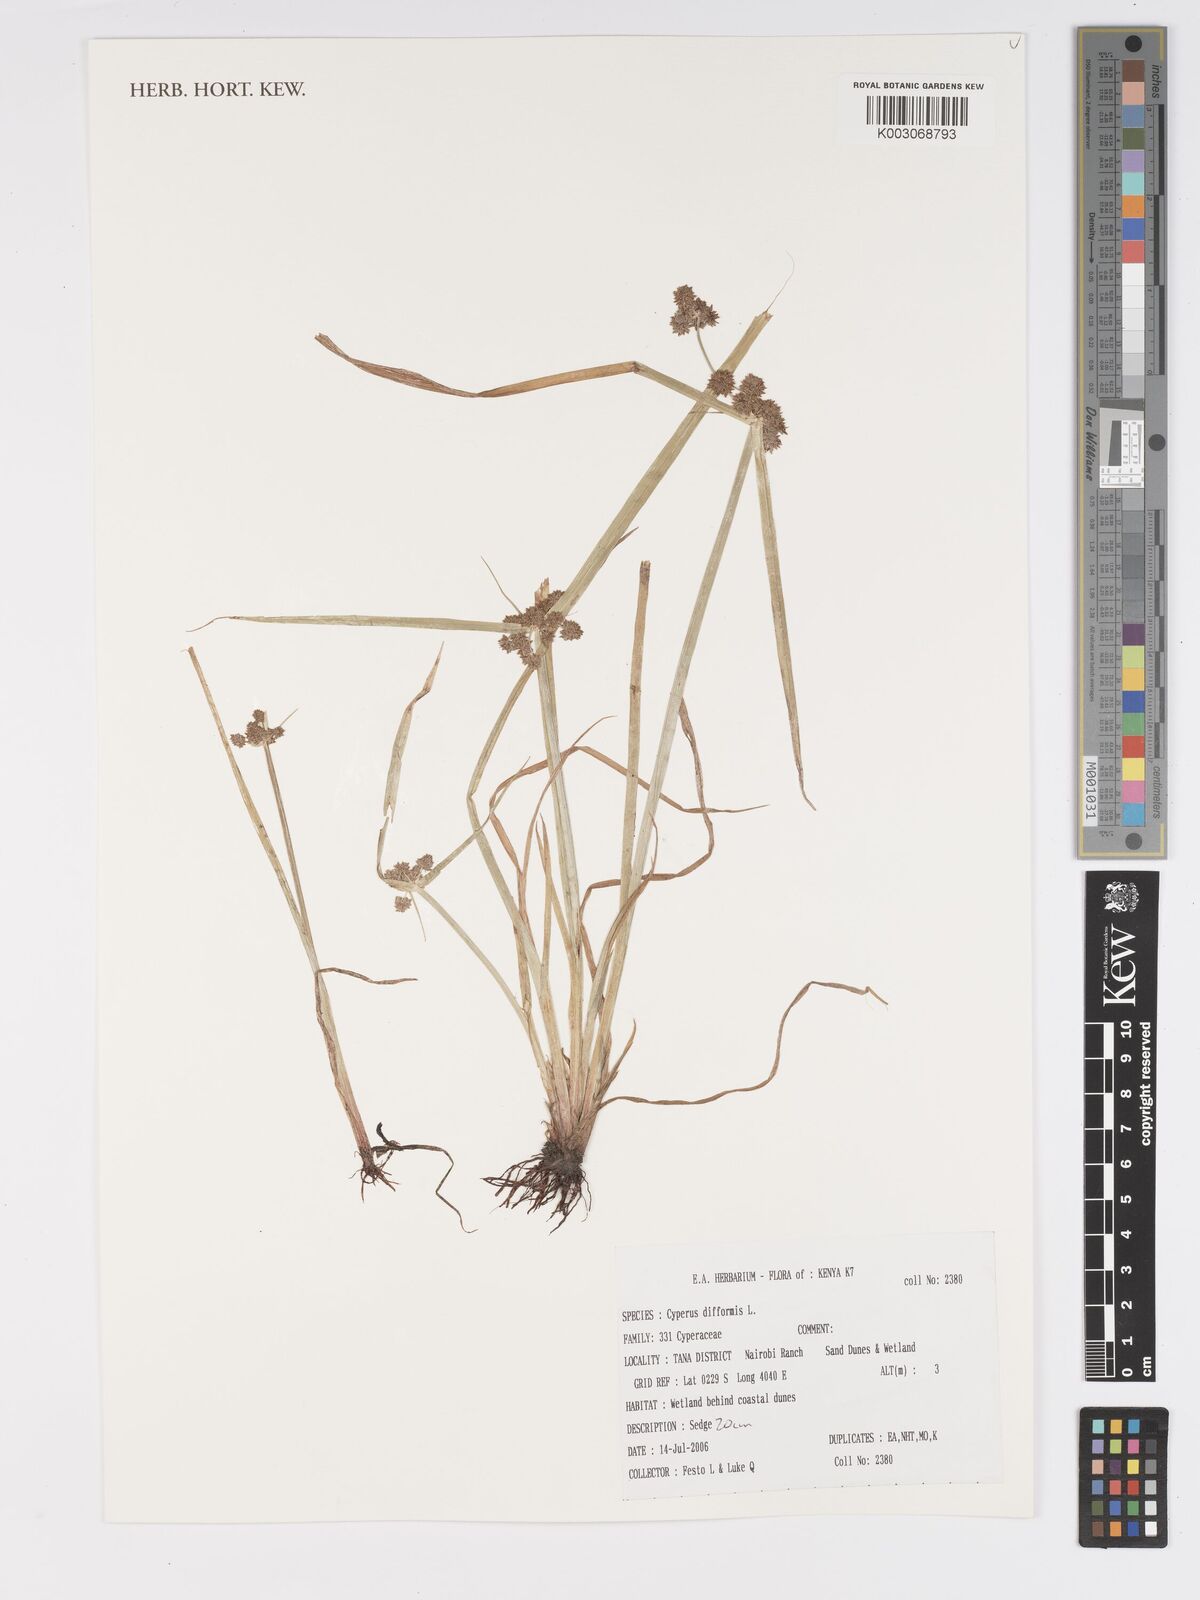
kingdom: Plantae
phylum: Tracheophyta
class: Liliopsida
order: Poales
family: Cyperaceae
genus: Cyperus
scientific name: Cyperus difformis
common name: Variable flatsedge
